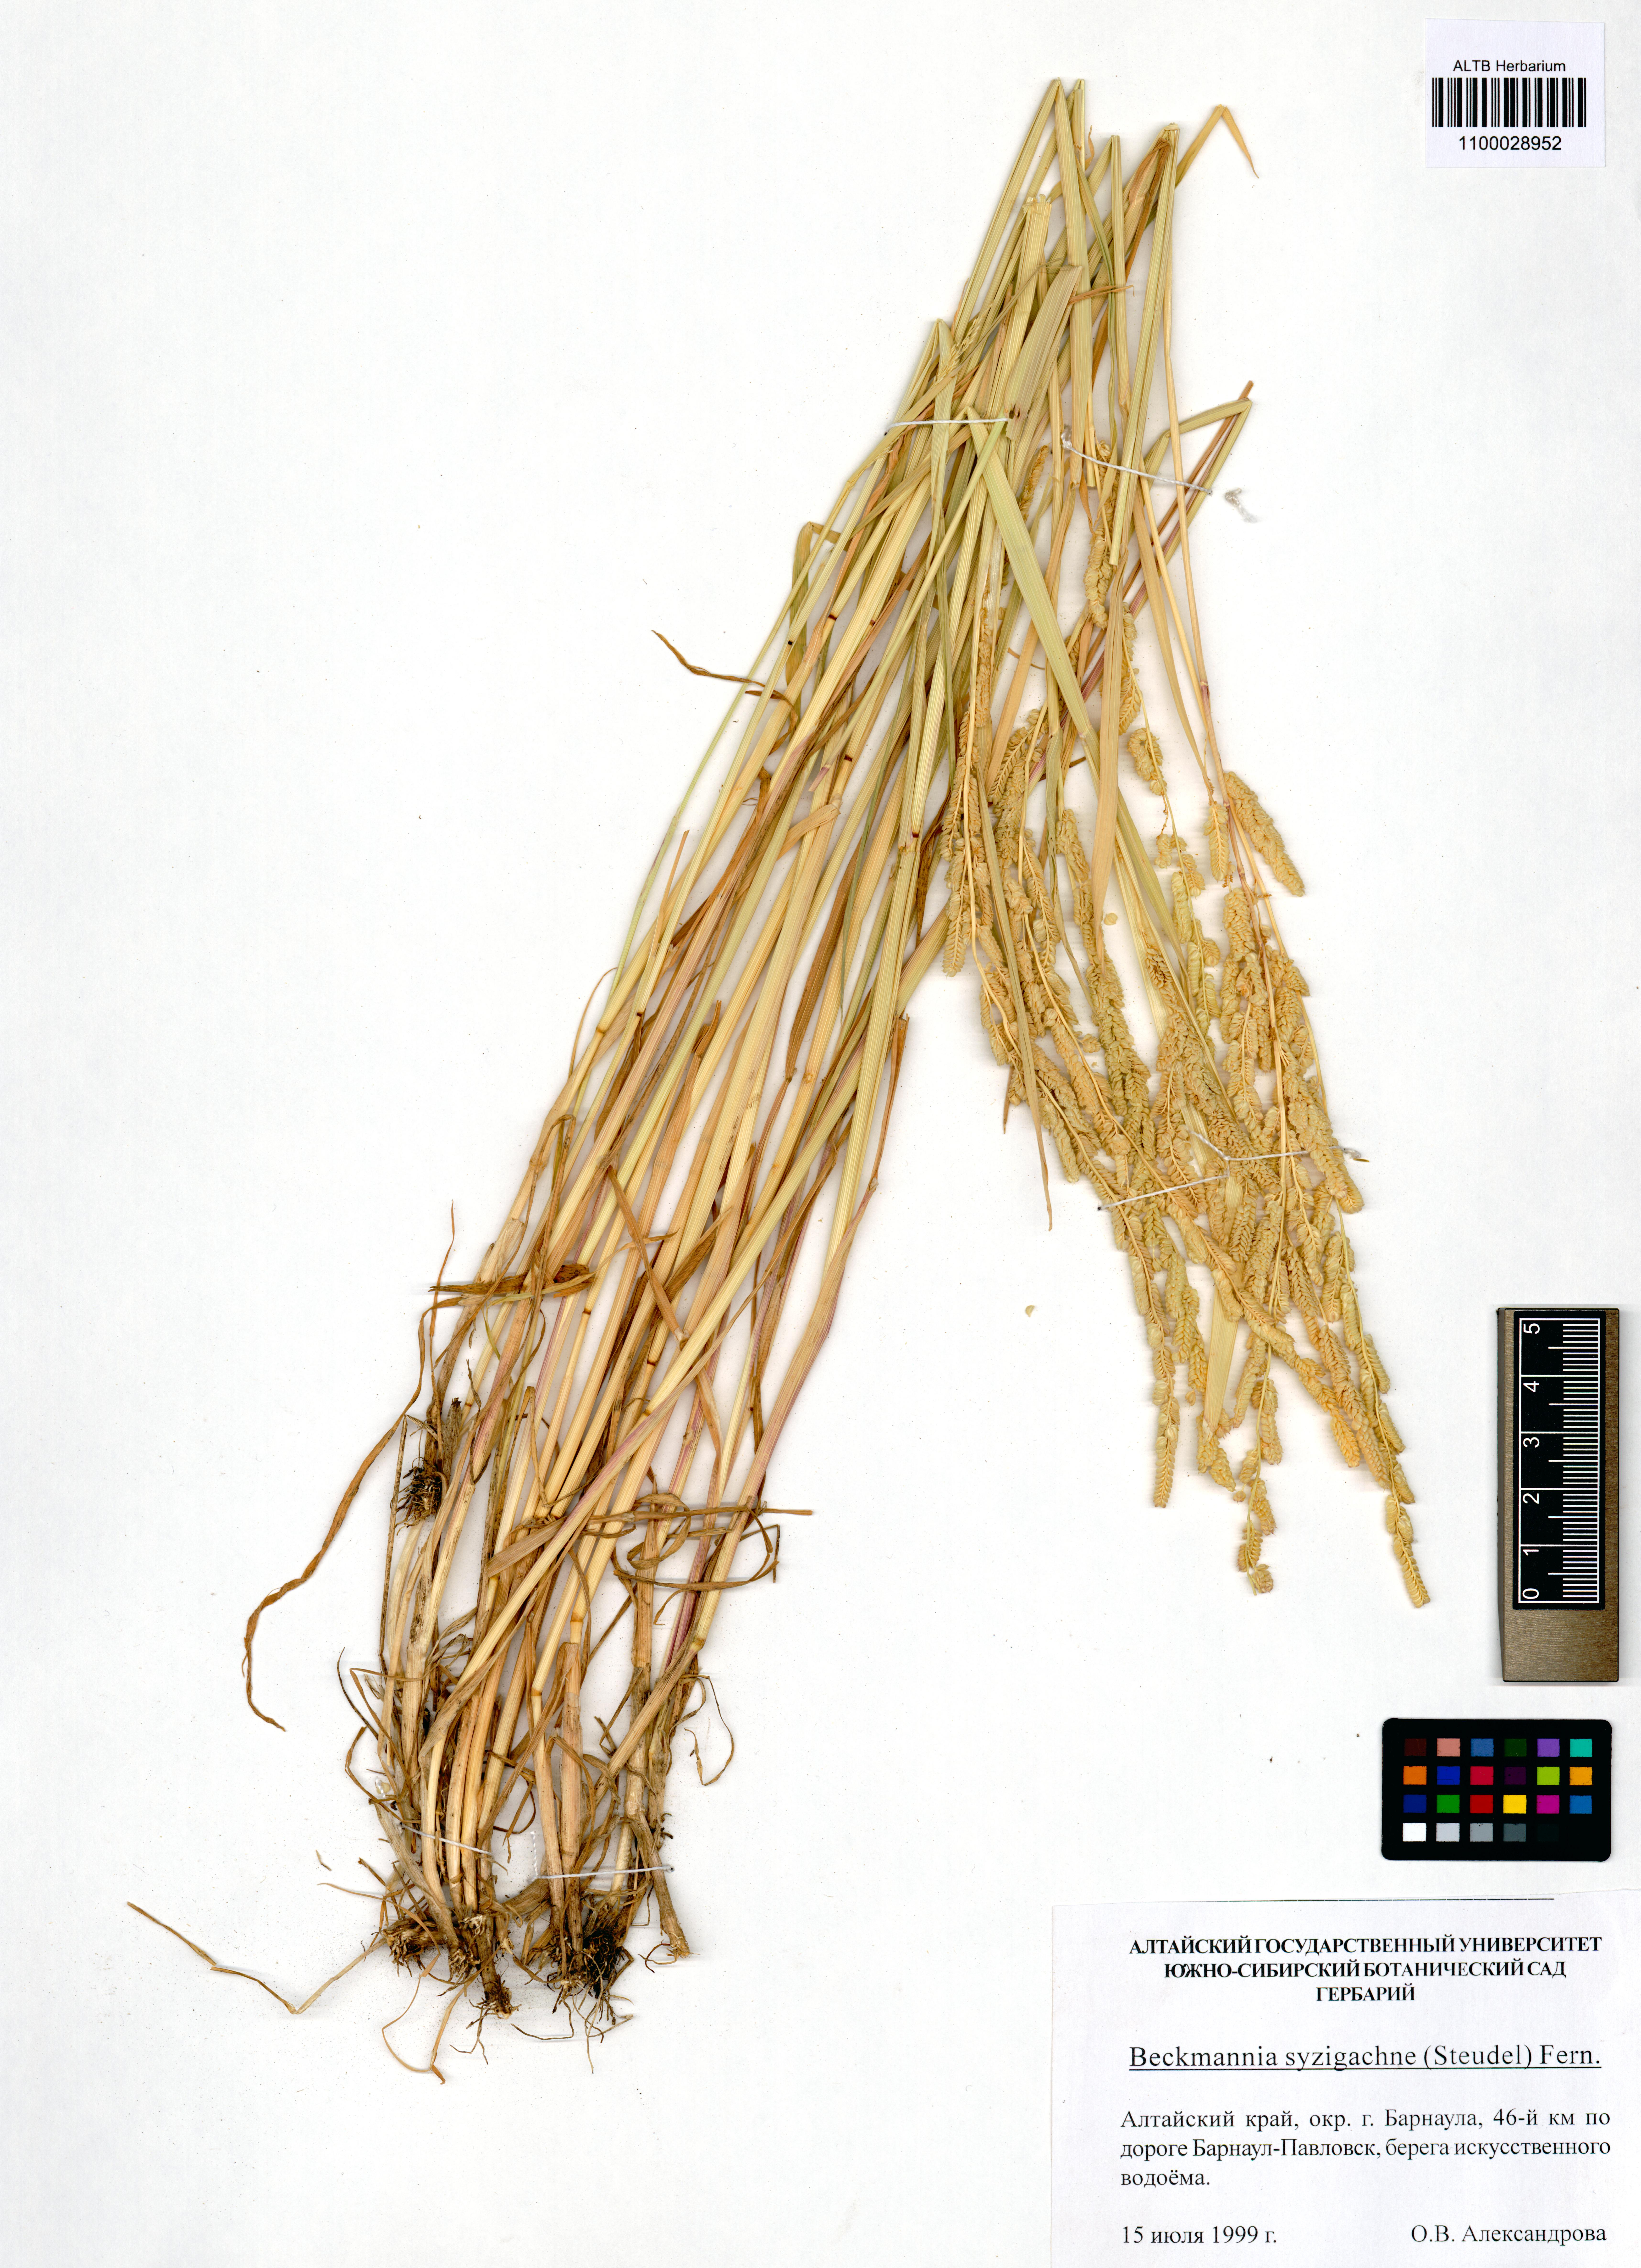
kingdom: Plantae
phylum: Tracheophyta
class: Liliopsida
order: Poales
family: Poaceae
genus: Beckmannia
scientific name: Beckmannia syzigachne
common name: American slough-grass
